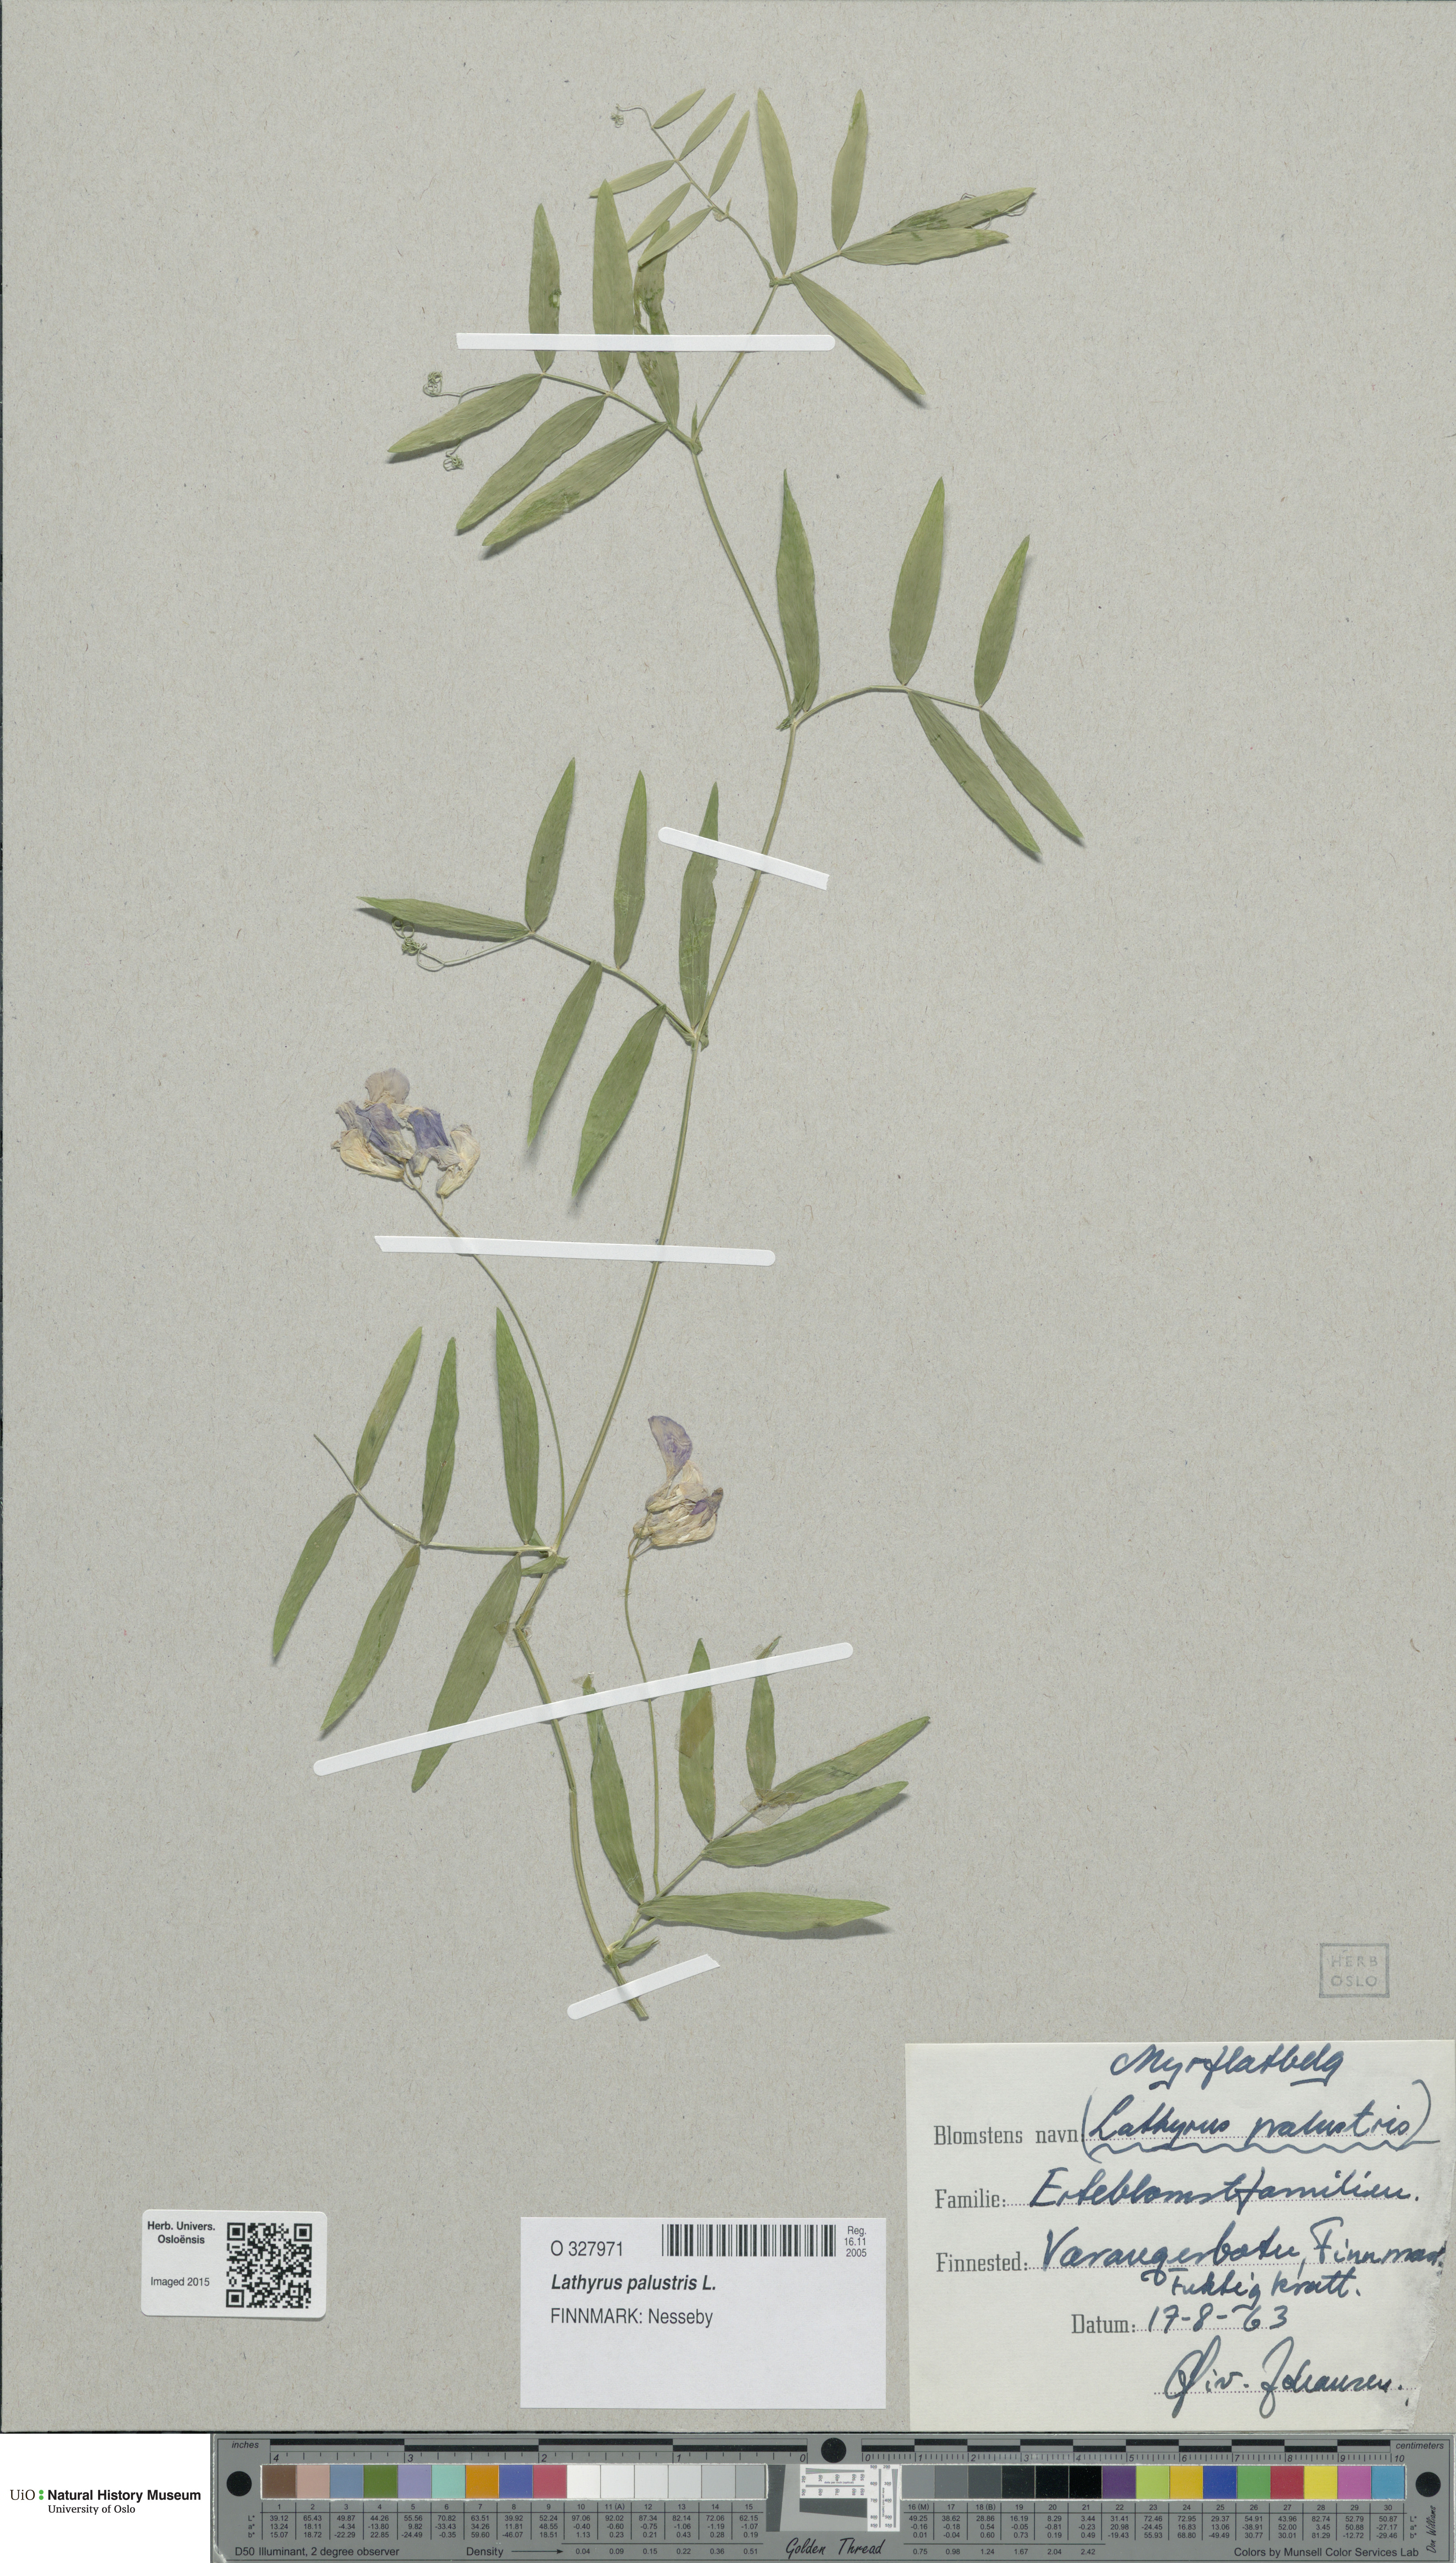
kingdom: Plantae
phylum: Tracheophyta
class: Magnoliopsida
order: Fabales
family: Fabaceae
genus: Lathyrus
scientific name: Lathyrus palustris
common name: Marsh pea
